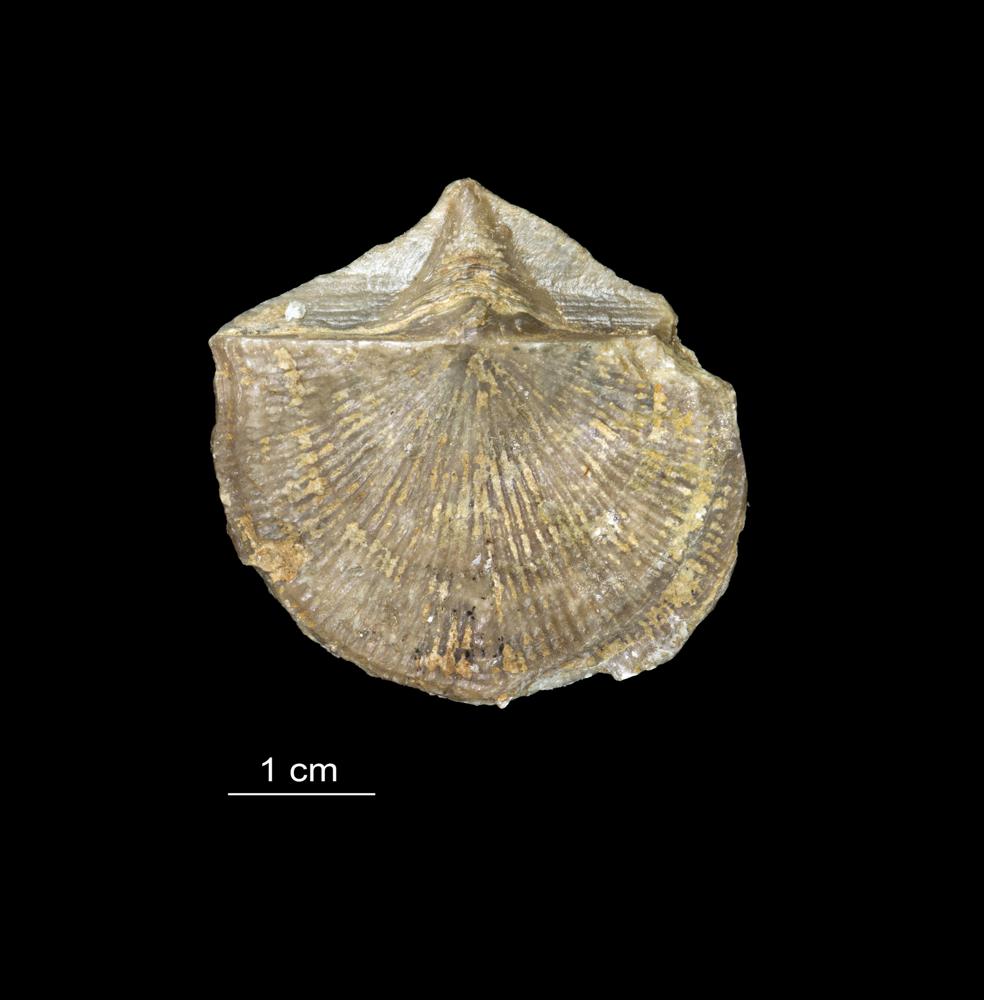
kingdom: Animalia
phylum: Brachiopoda
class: Rhynchonellata
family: Clitambonitidae
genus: Vellamo
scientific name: Vellamo Orthis verneuili
